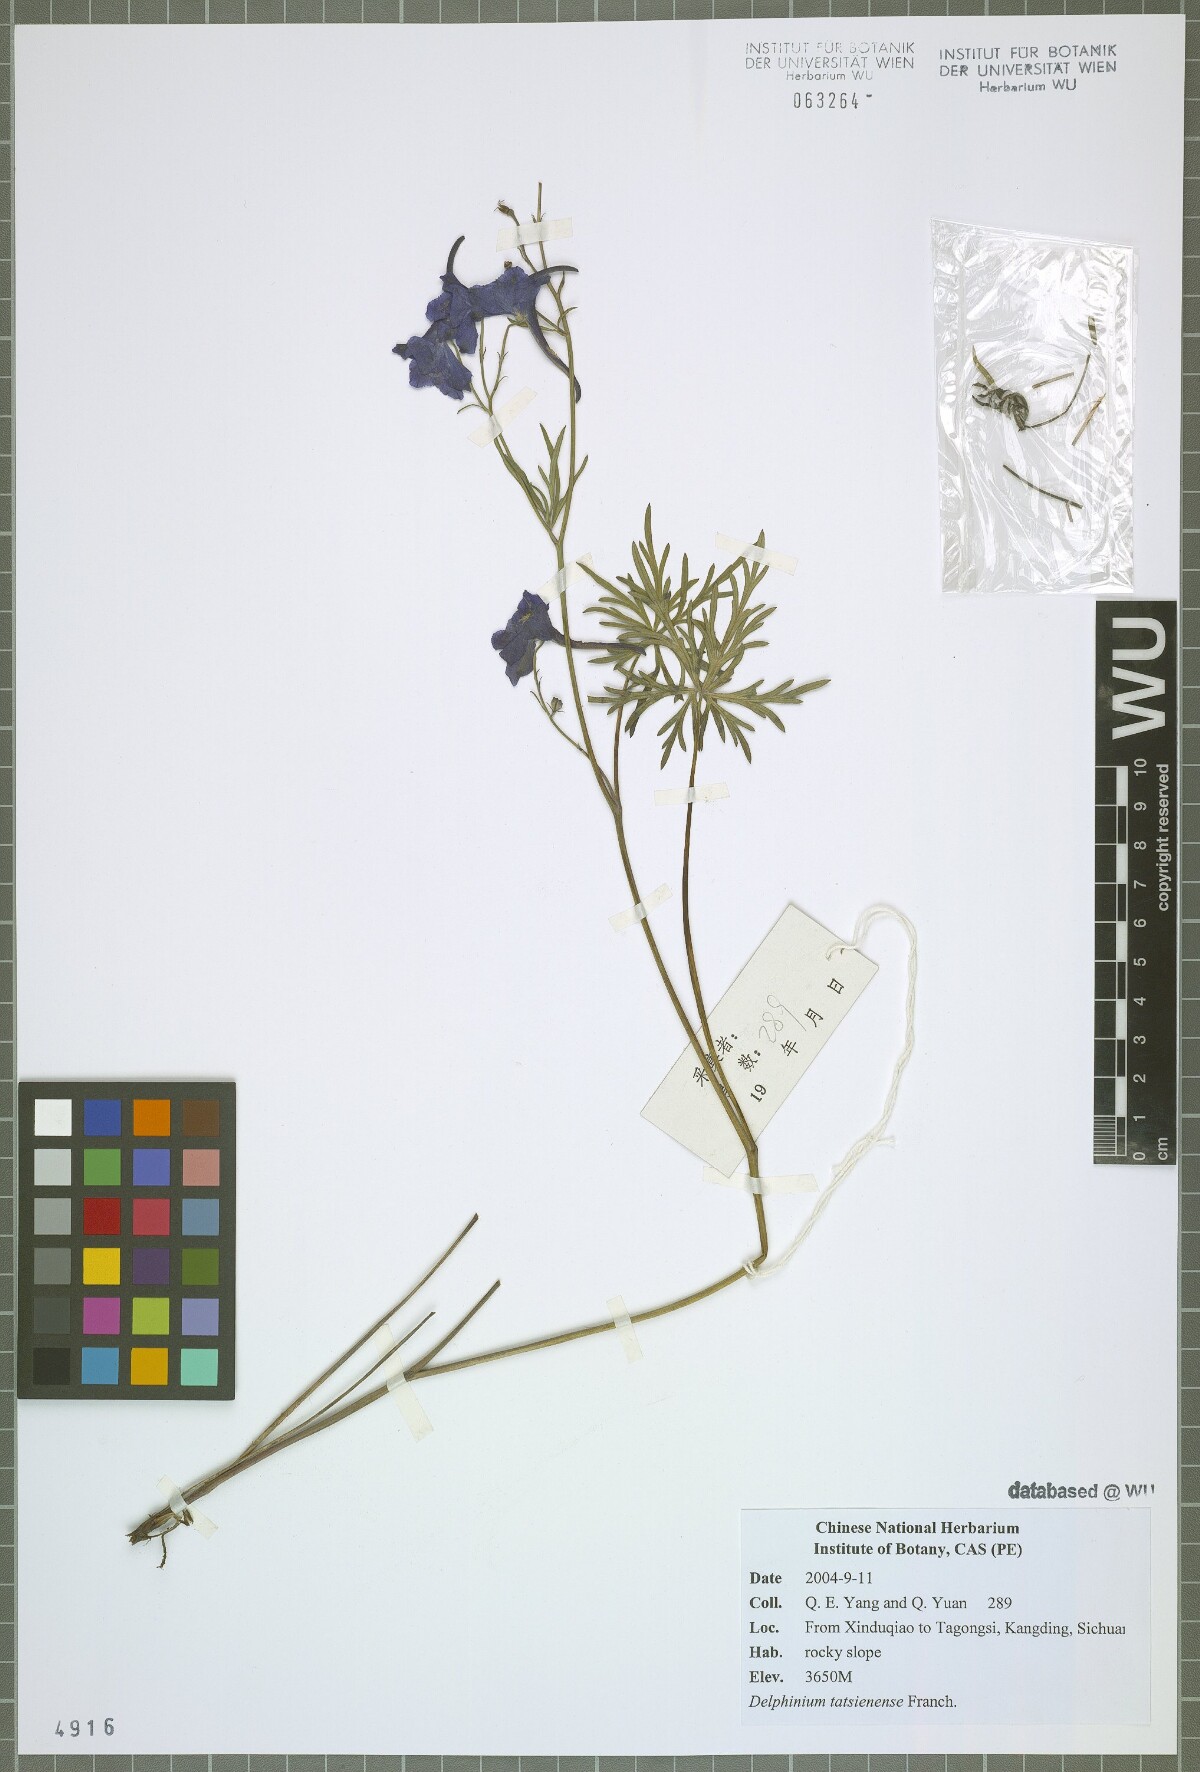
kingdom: Plantae
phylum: Tracheophyta
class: Magnoliopsida
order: Ranunculales
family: Ranunculaceae
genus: Delphinium
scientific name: Delphinium tatsienense
